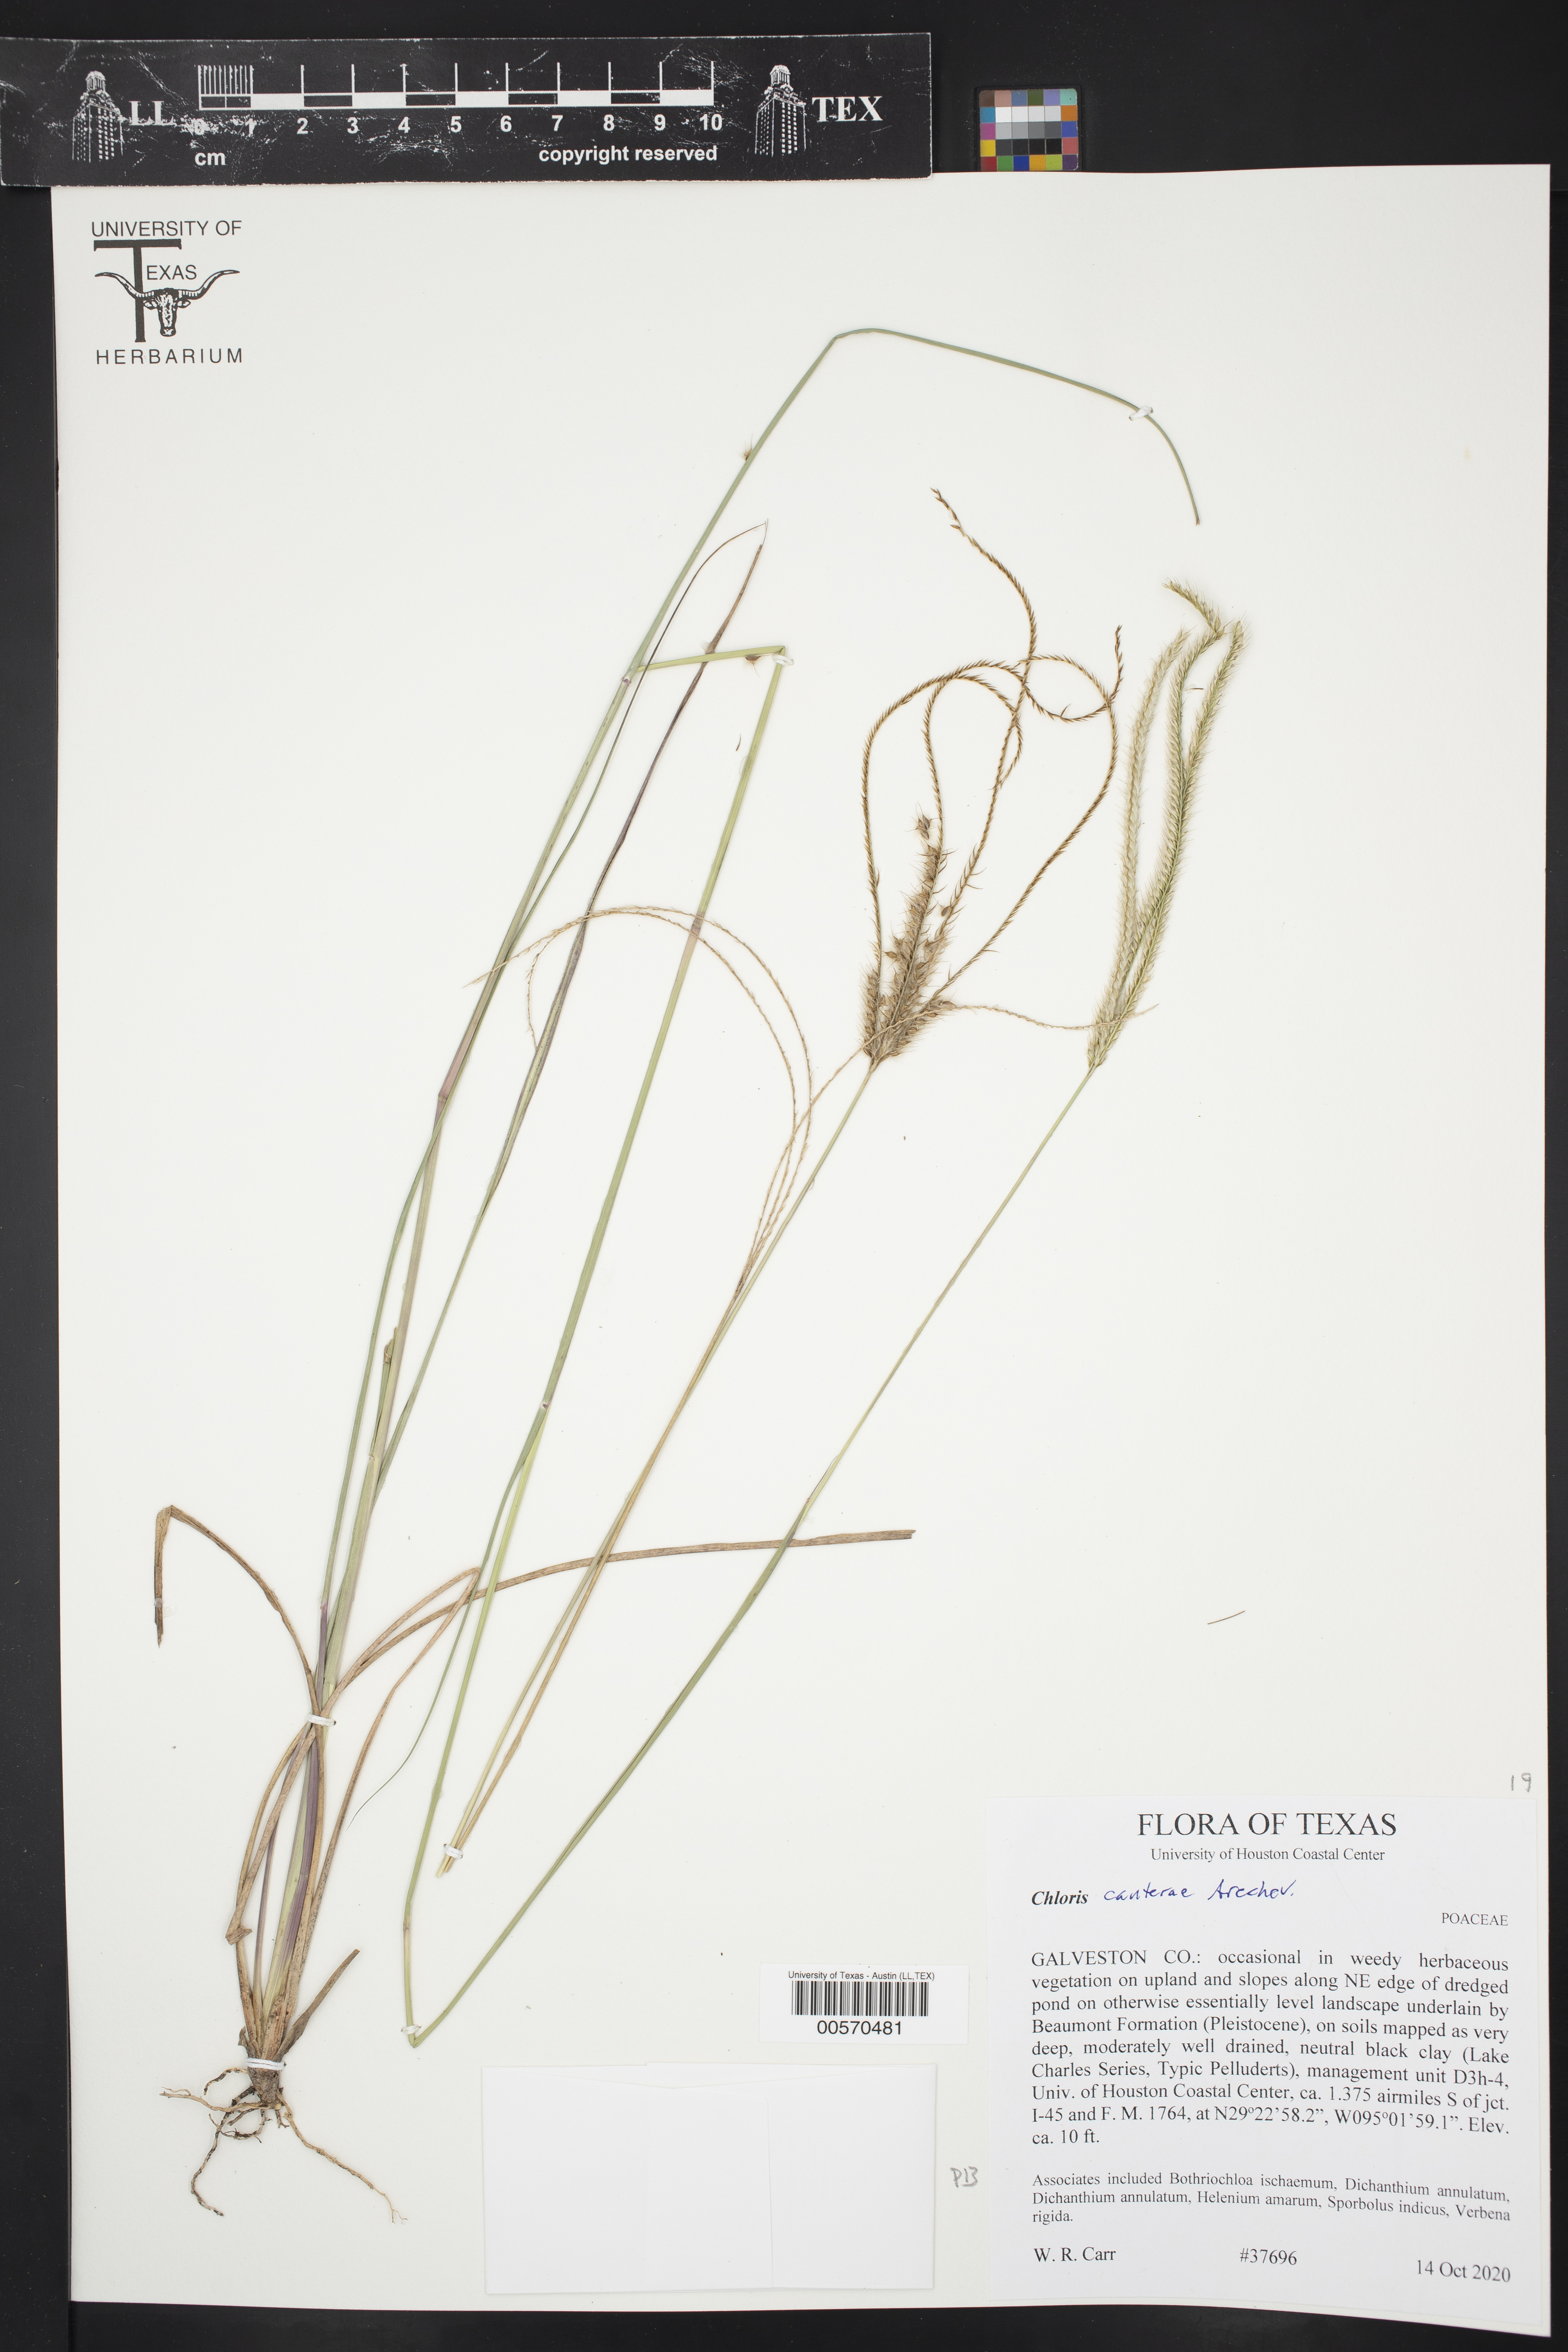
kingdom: Plantae
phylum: Tracheophyta
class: Liliopsida
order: Poales
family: Poaceae
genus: Stapfochloa
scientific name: Stapfochloa canterae
